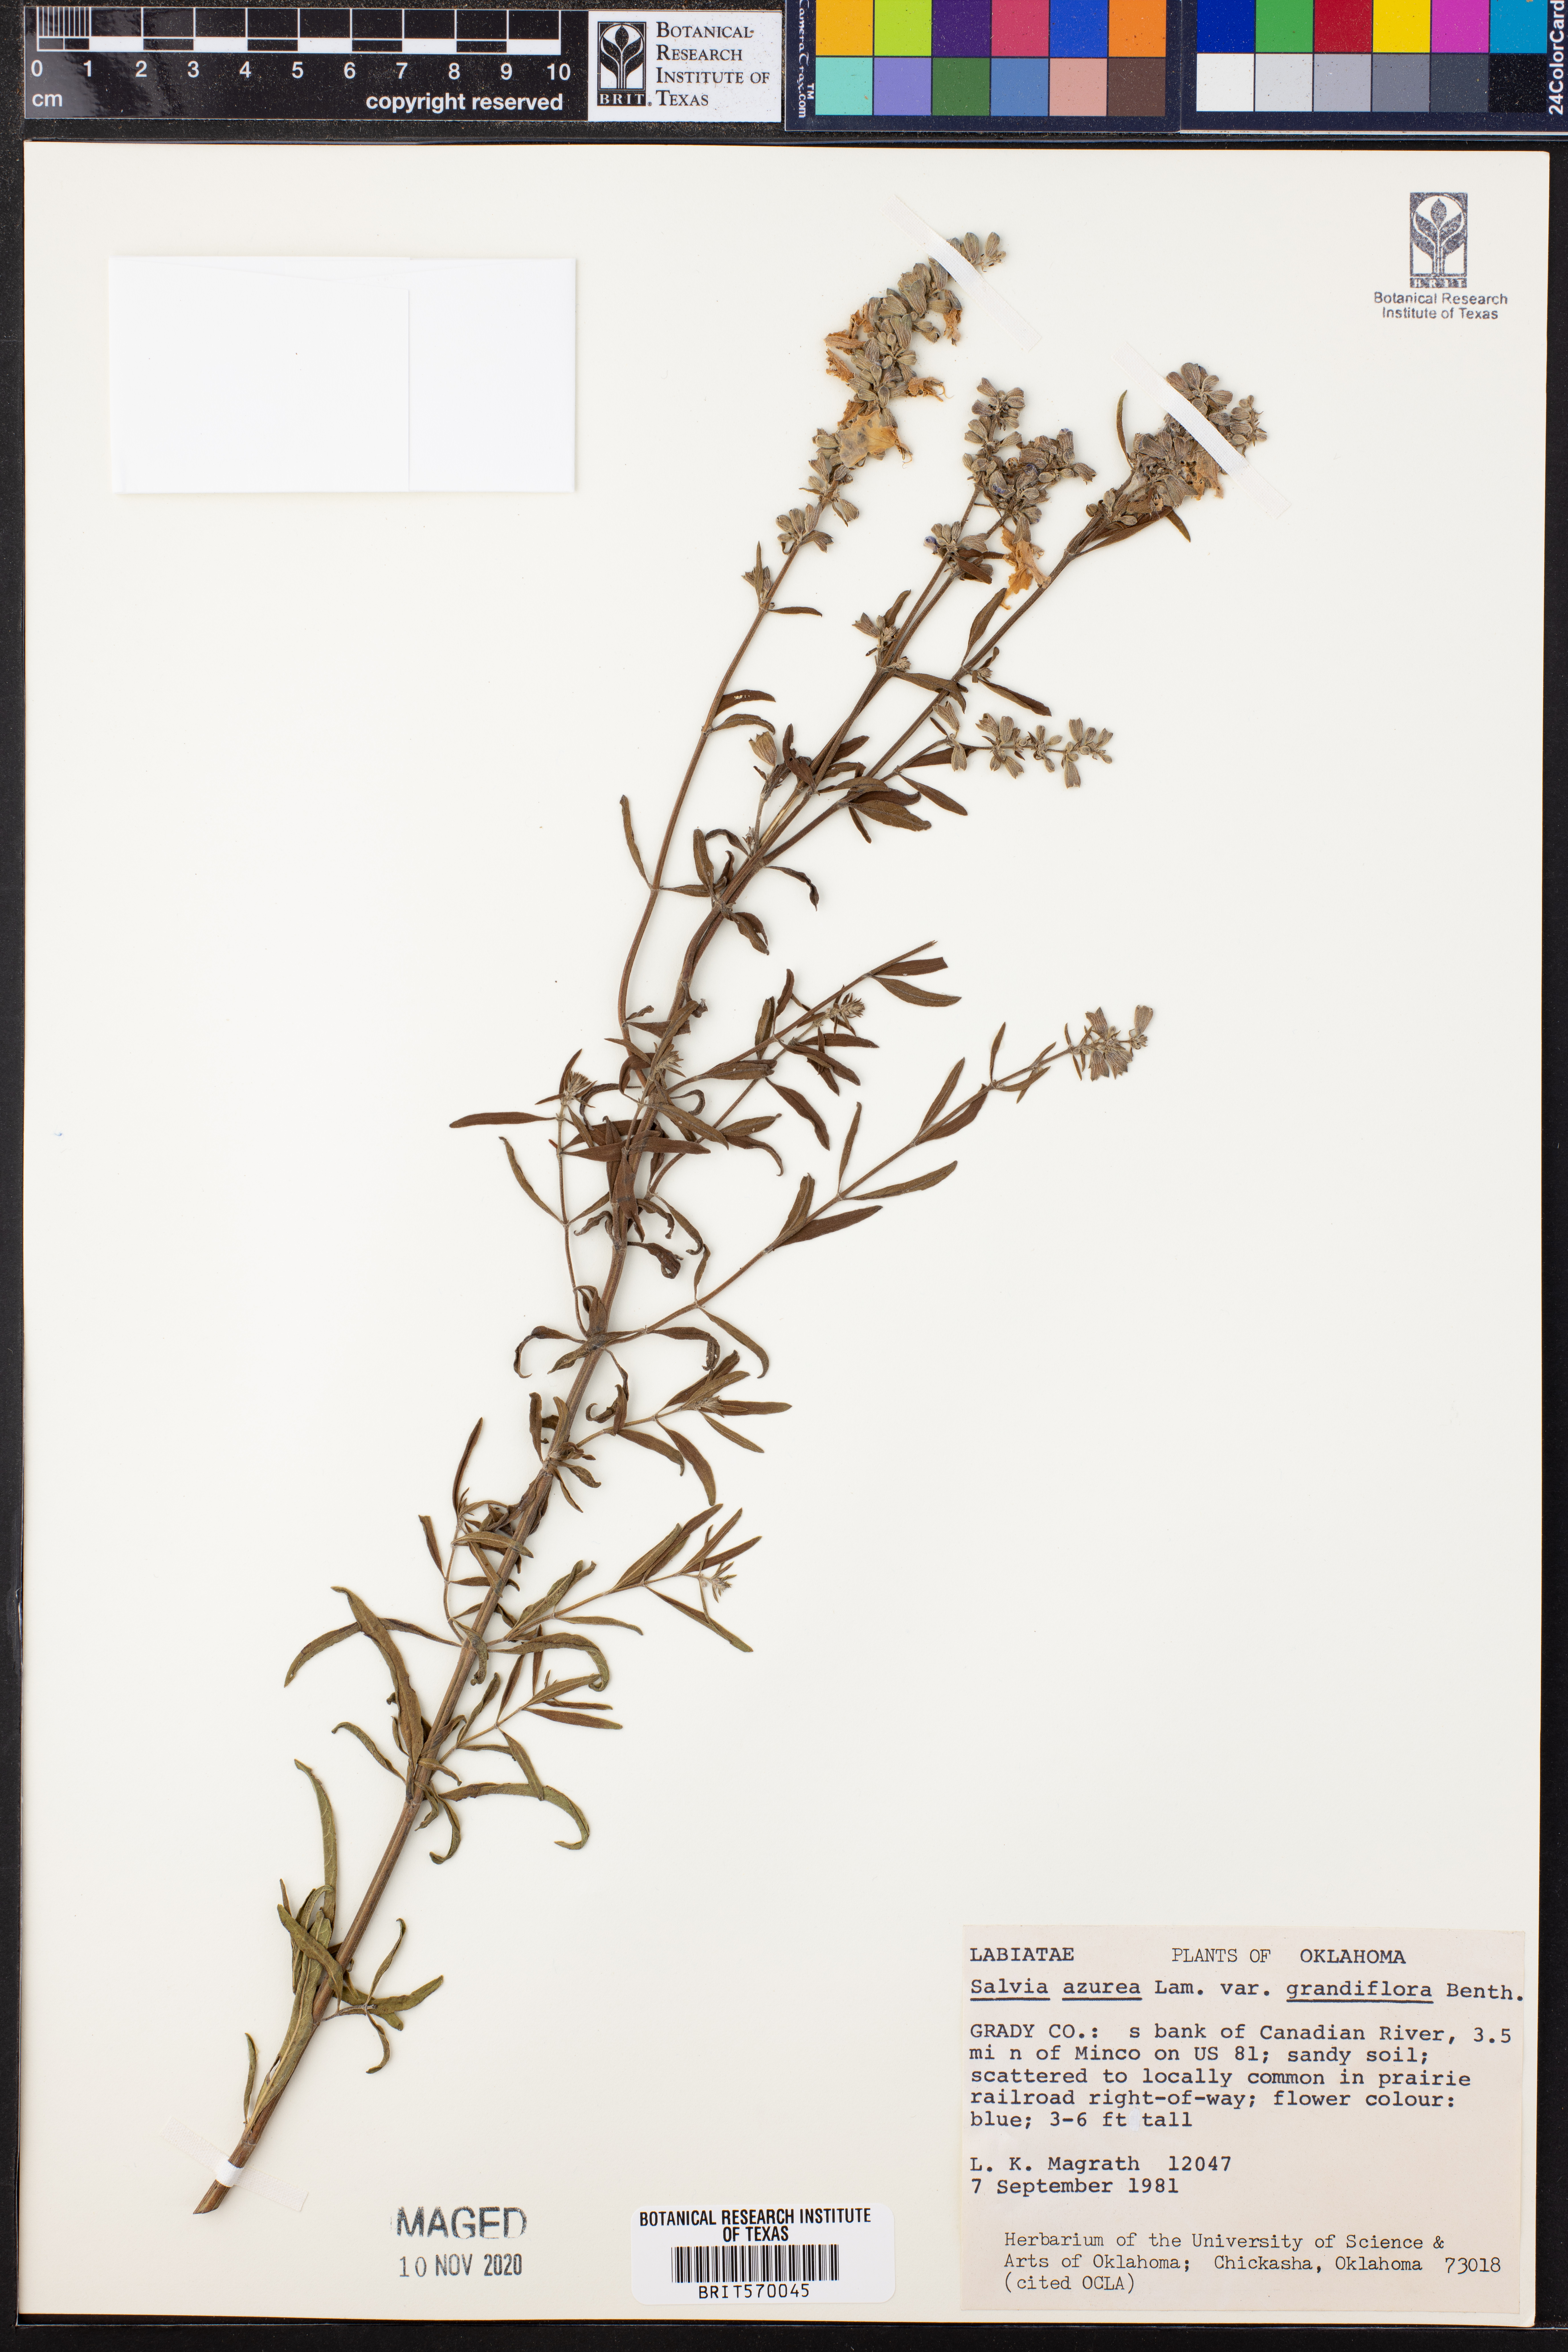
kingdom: Plantae
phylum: Tracheophyta
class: Magnoliopsida
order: Lamiales
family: Lamiaceae
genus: Salvia
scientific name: Salvia azurea
